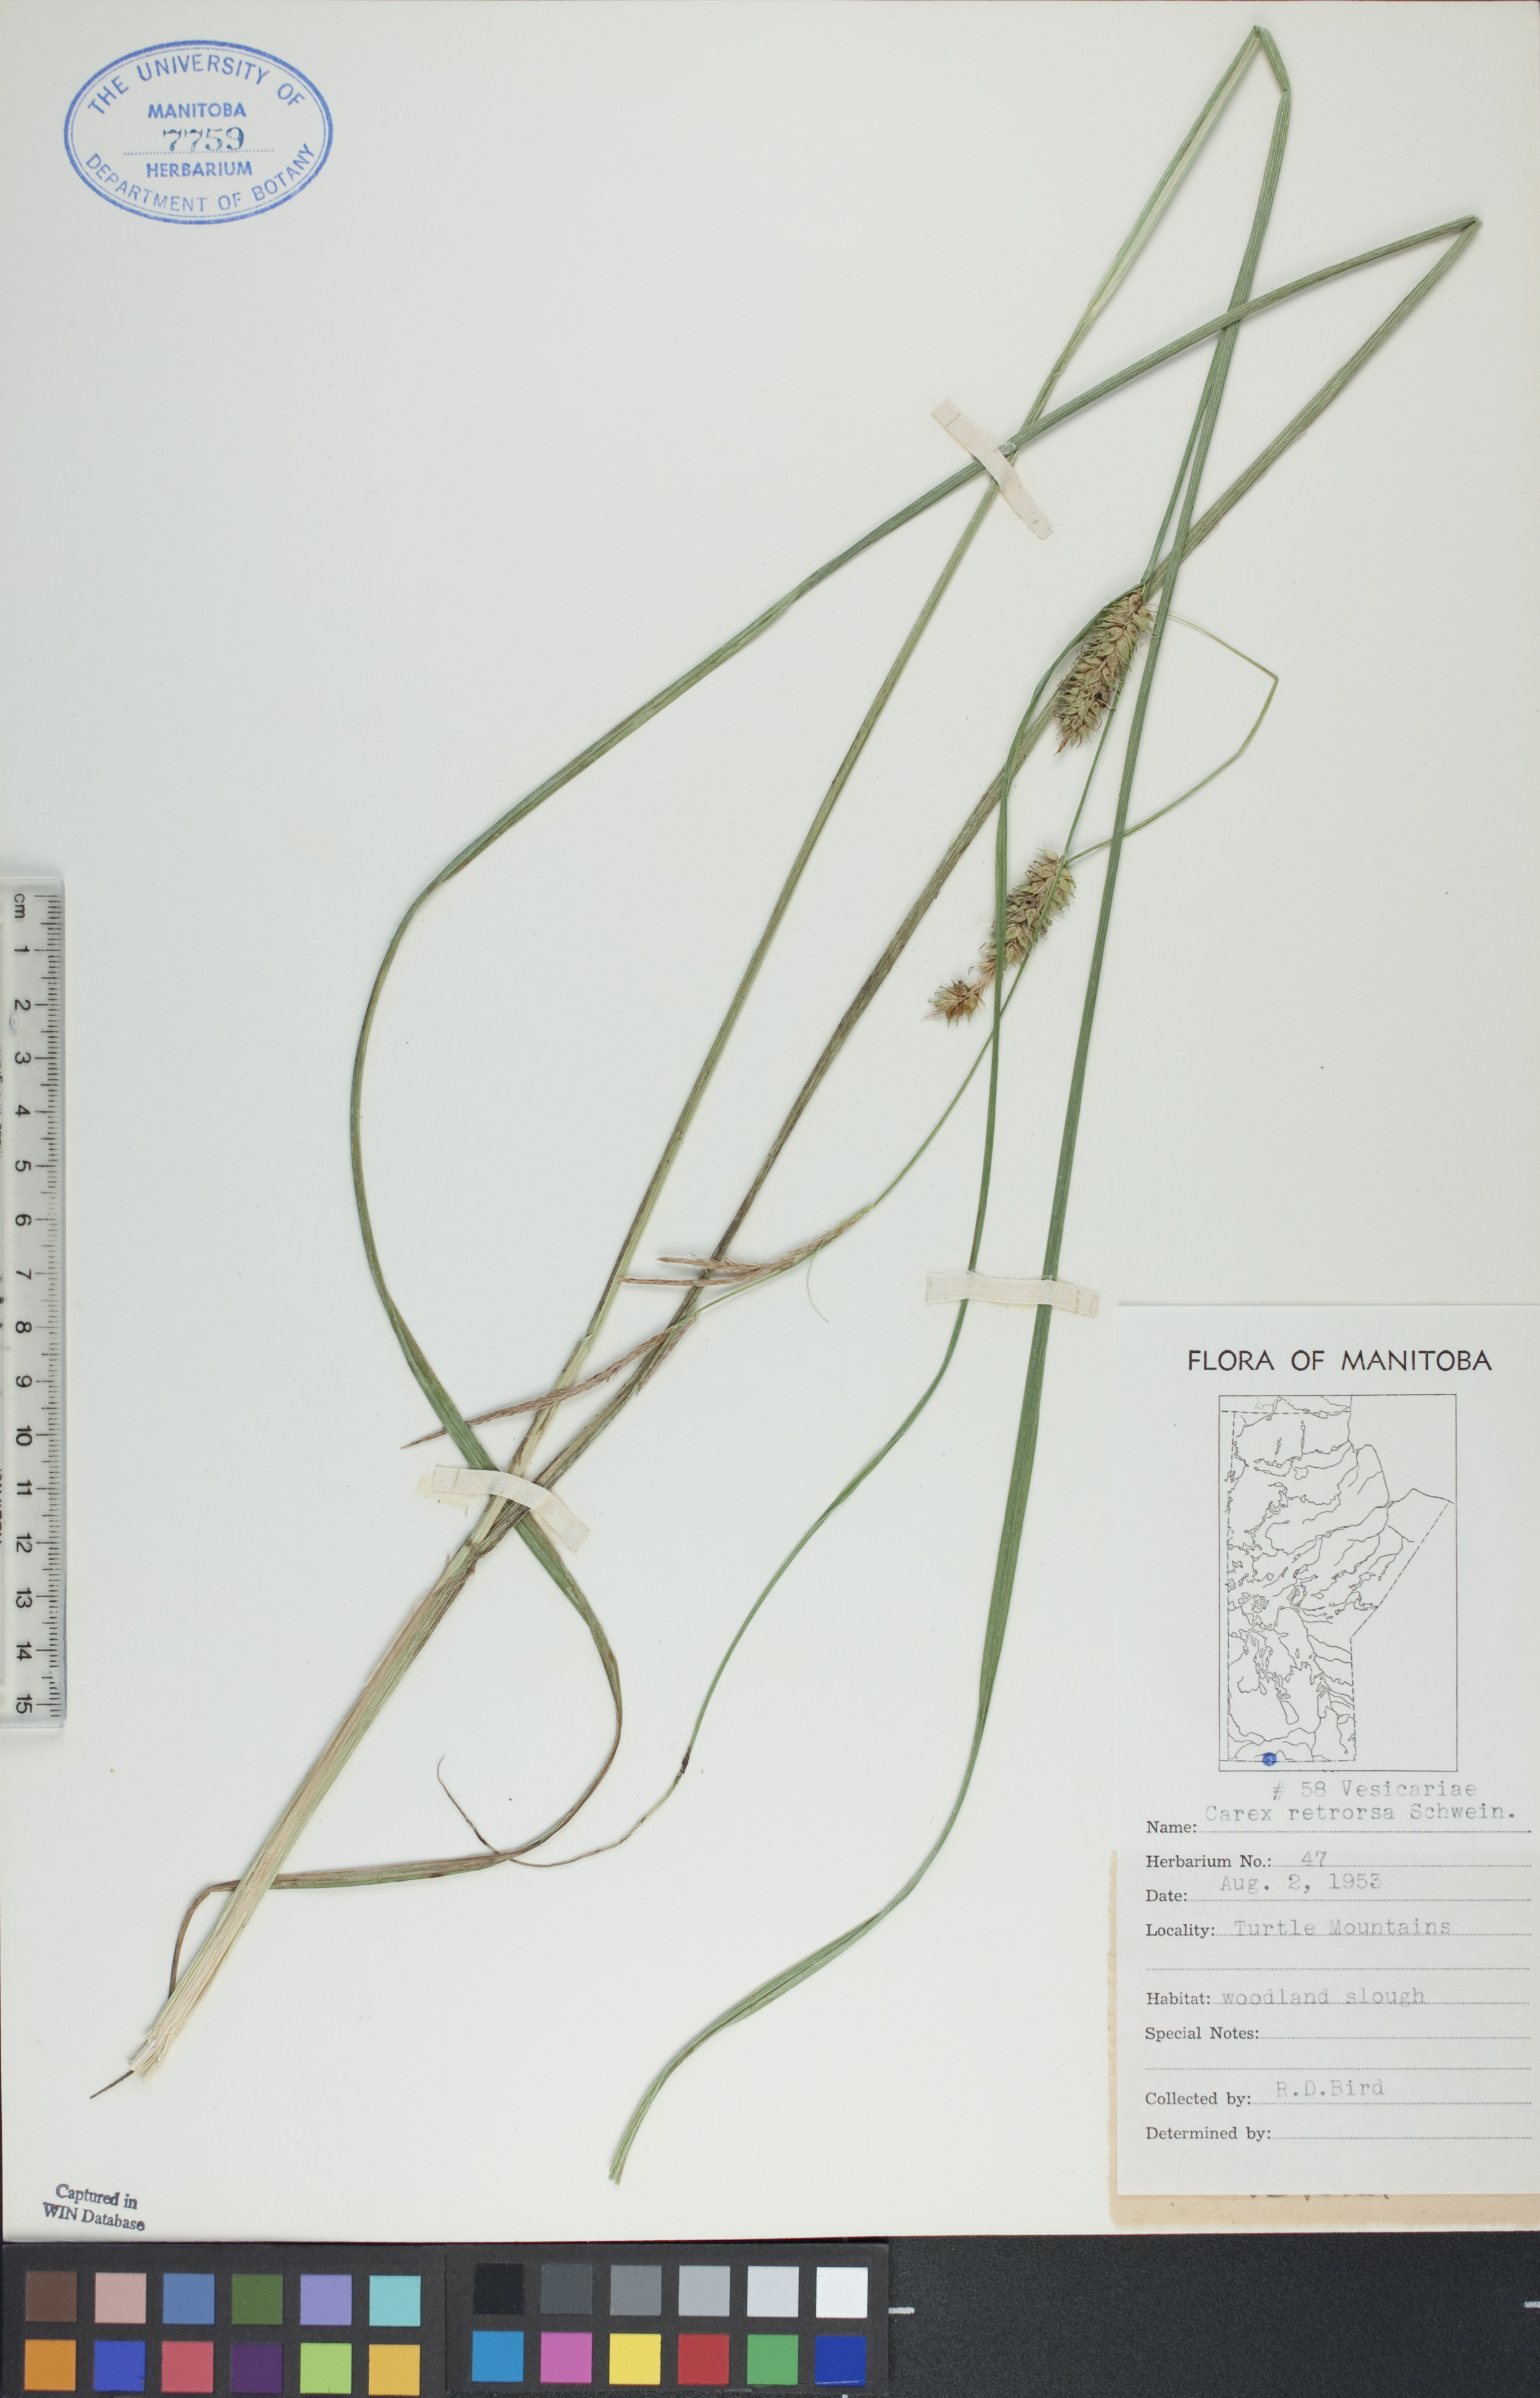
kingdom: Plantae
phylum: Tracheophyta
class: Liliopsida
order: Poales
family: Cyperaceae
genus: Carex
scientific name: Carex retrorsa
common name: Knot-sheath sedge
